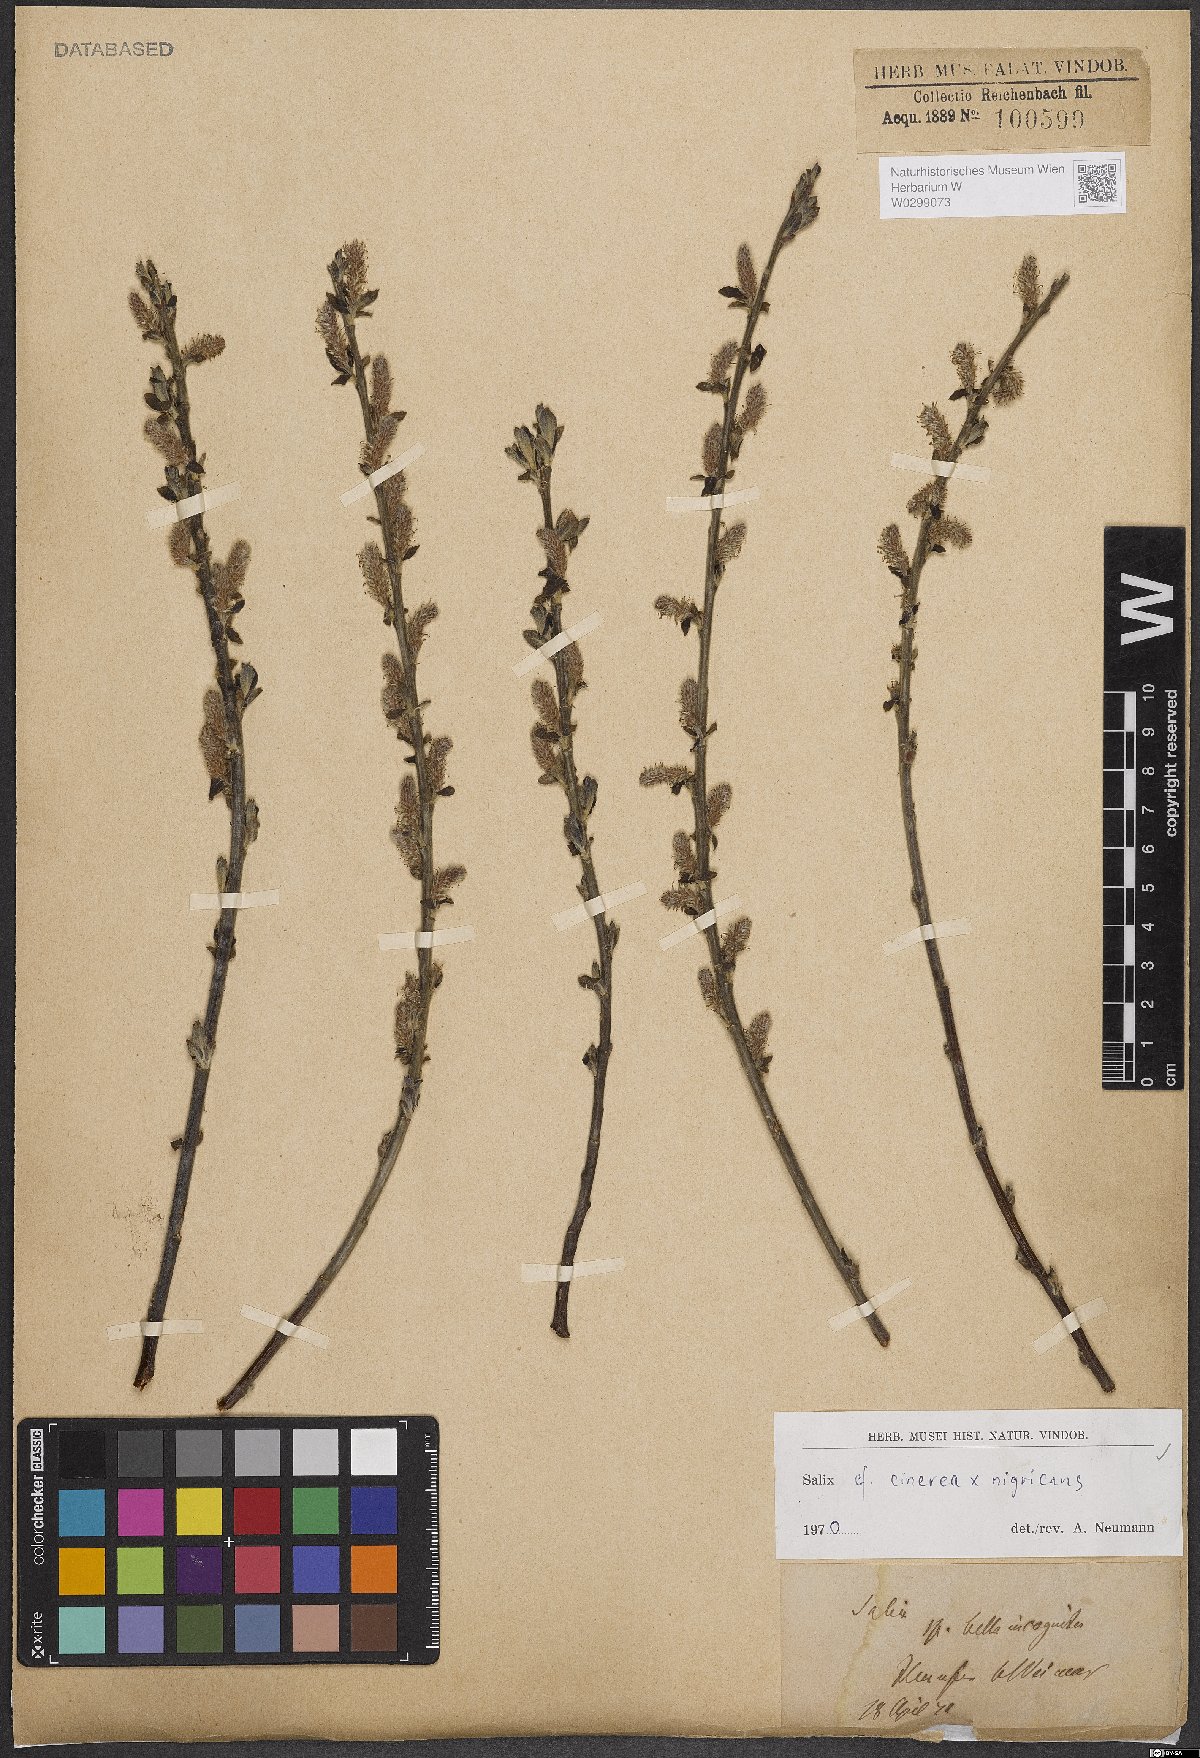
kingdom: Plantae
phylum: Tracheophyta
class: Magnoliopsida
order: Malpighiales
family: Salicaceae
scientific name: Salicaceae
